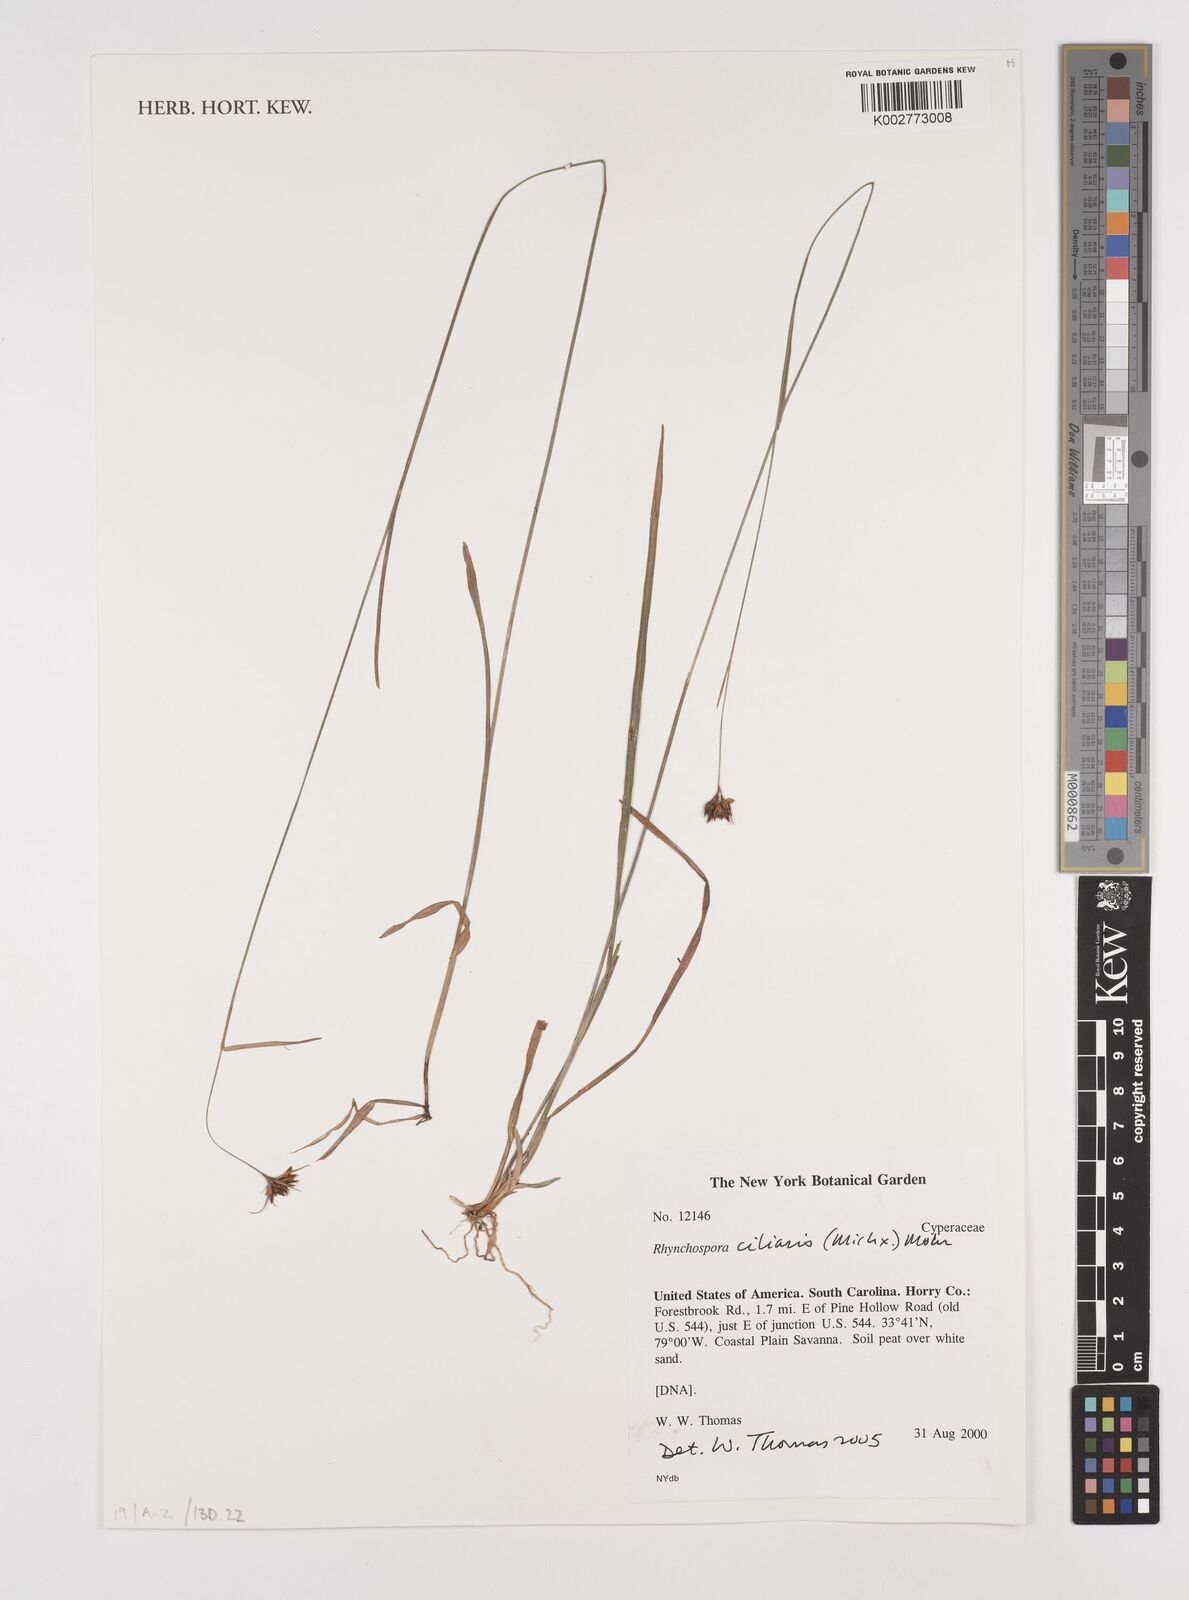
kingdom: Plantae
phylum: Tracheophyta
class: Liliopsida
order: Poales
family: Cyperaceae
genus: Rhynchospora
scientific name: Rhynchospora ciliaris
